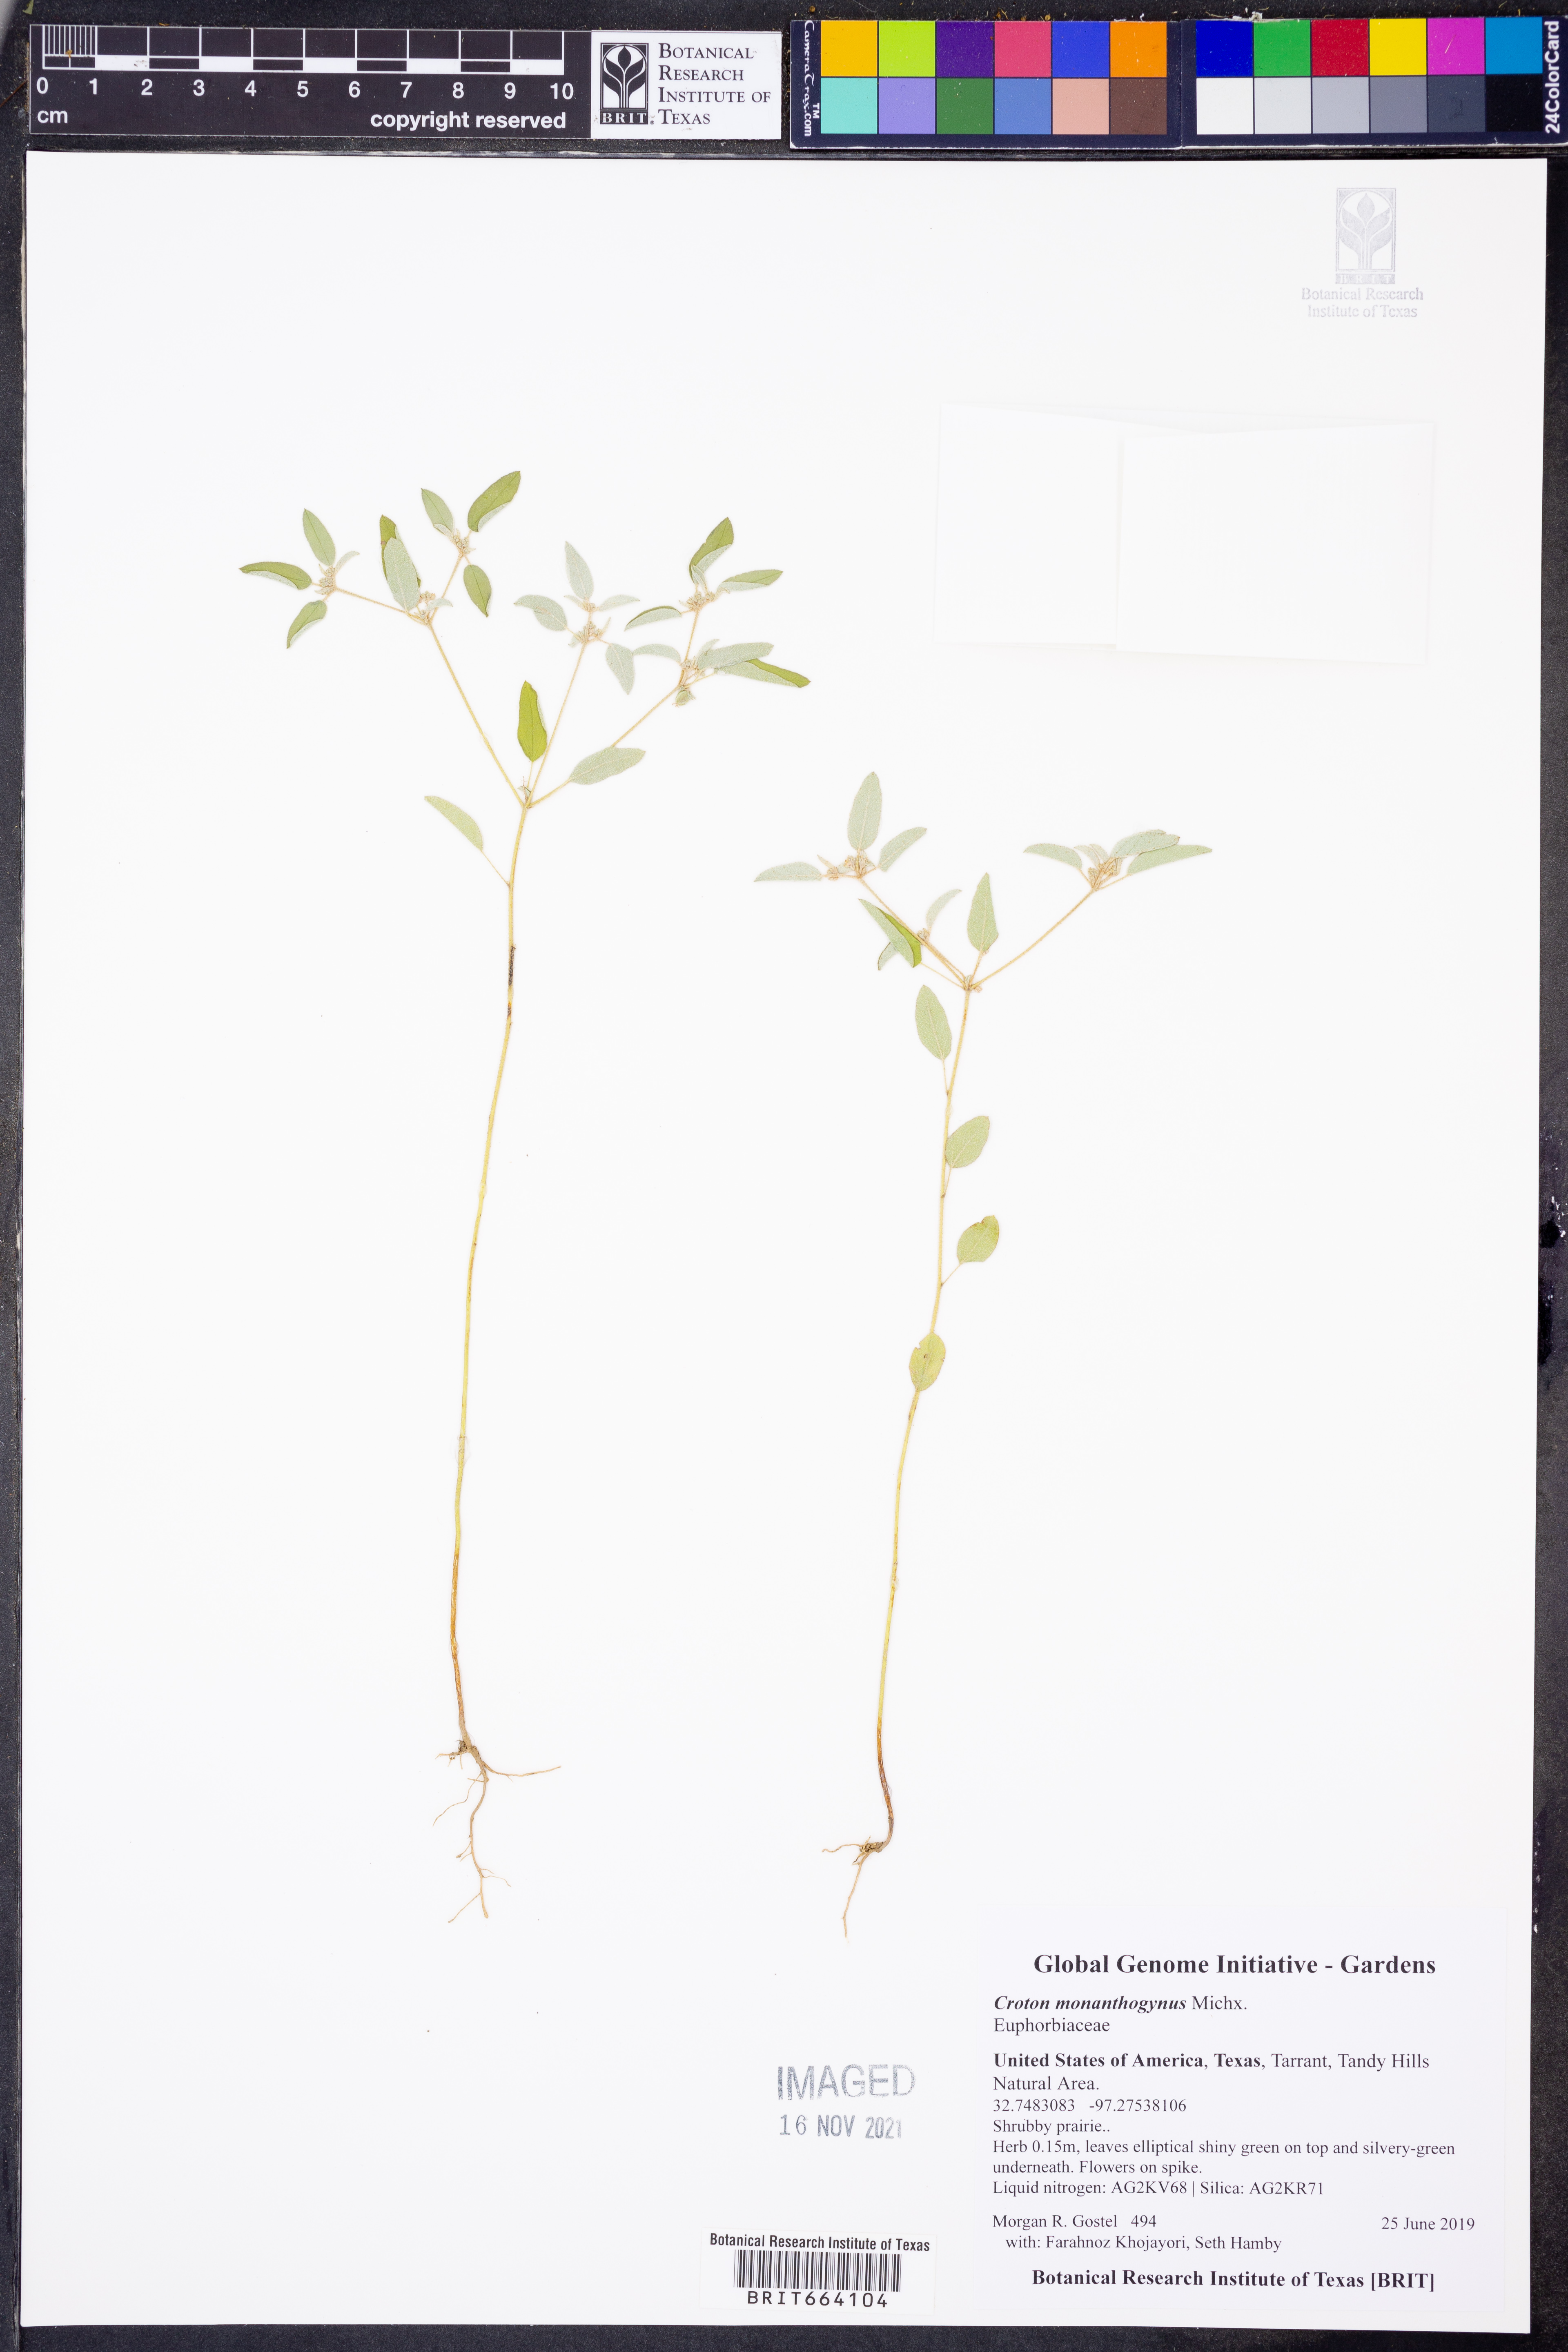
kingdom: Plantae
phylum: Tracheophyta
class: Magnoliopsida
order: Malpighiales
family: Euphorbiaceae
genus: Croton
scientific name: Croton monanthogynus
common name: One-seed croton
